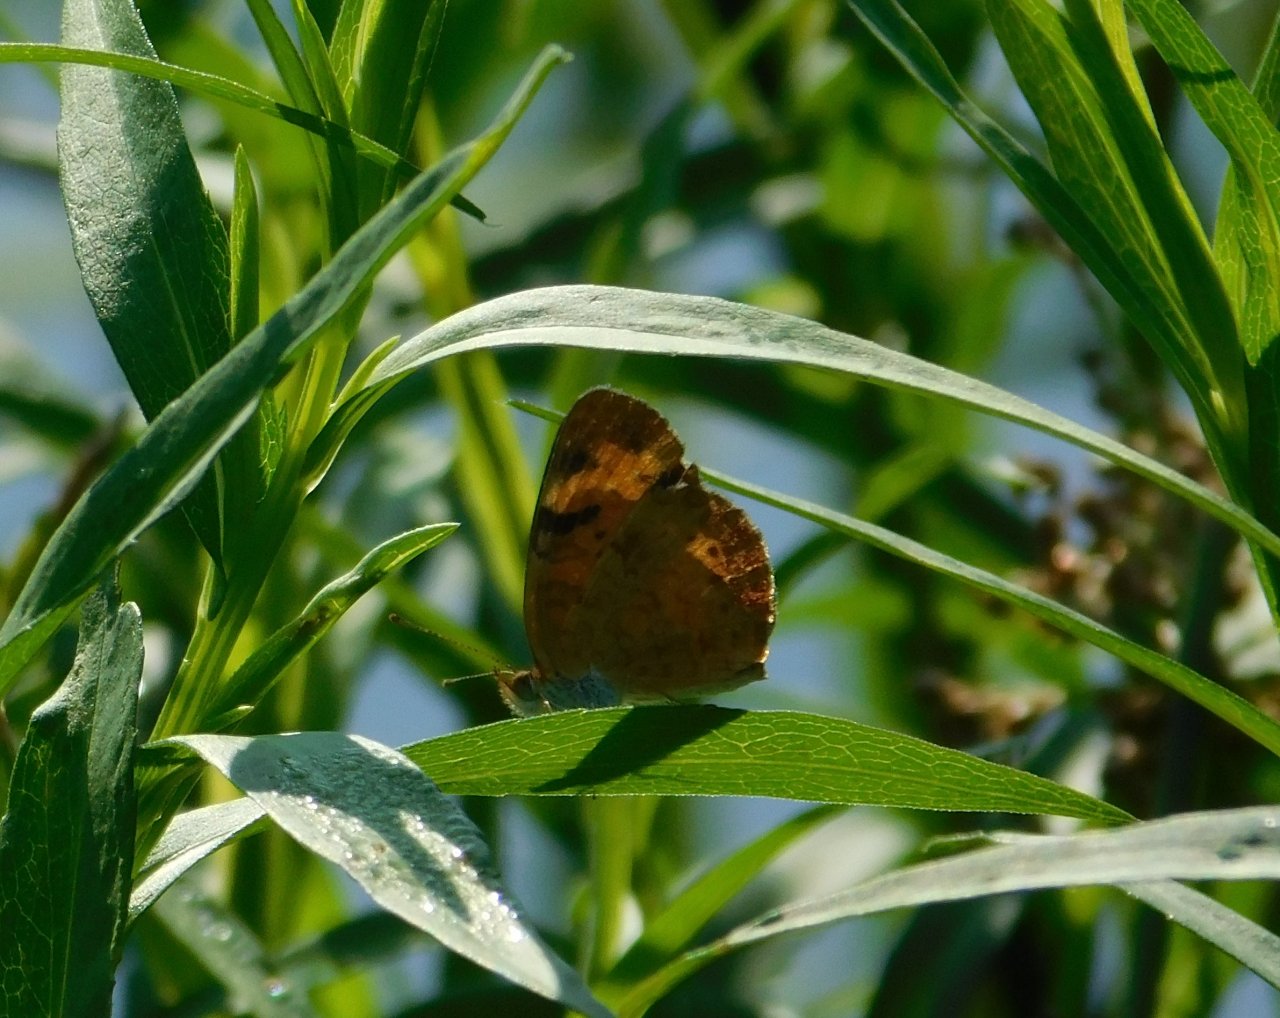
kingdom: Animalia
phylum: Arthropoda
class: Insecta
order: Lepidoptera
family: Nymphalidae
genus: Phyciodes
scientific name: Phyciodes tharos
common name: Northern Crescent
